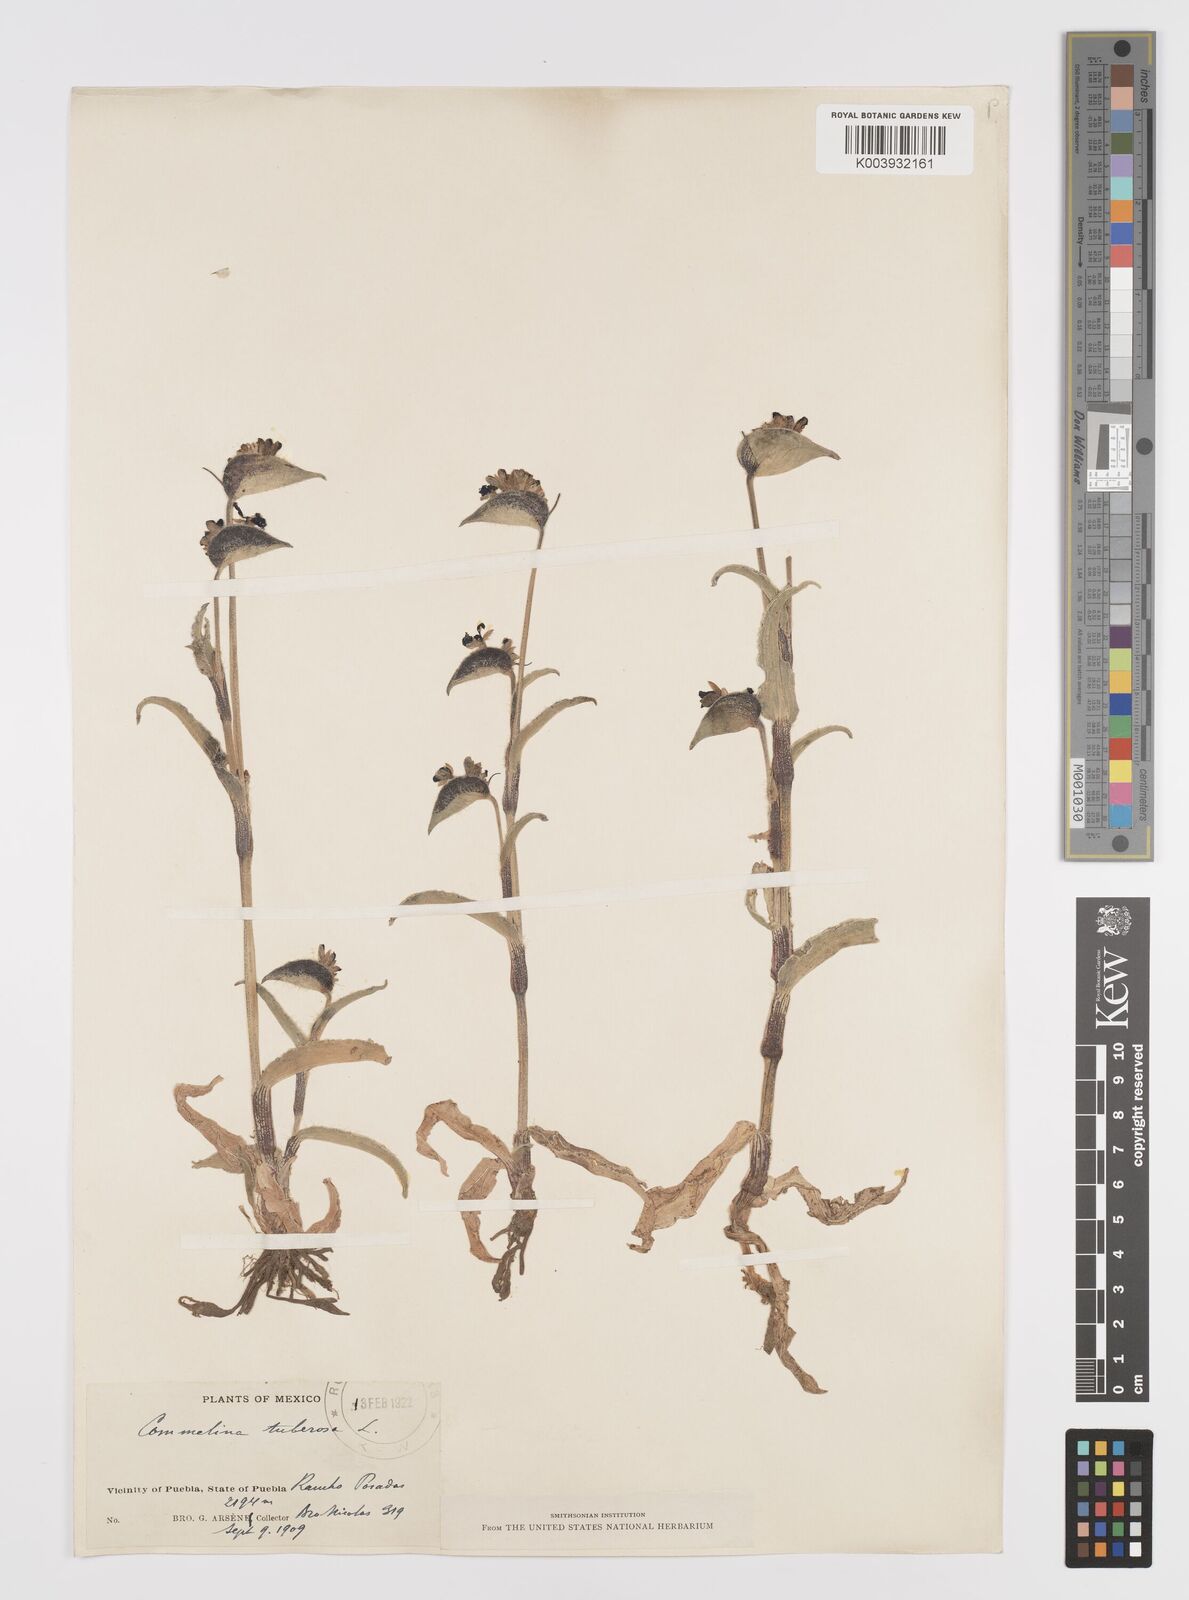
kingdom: Plantae
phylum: Tracheophyta
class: Liliopsida
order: Commelinales
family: Commelinaceae
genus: Commelina
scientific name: Commelina
